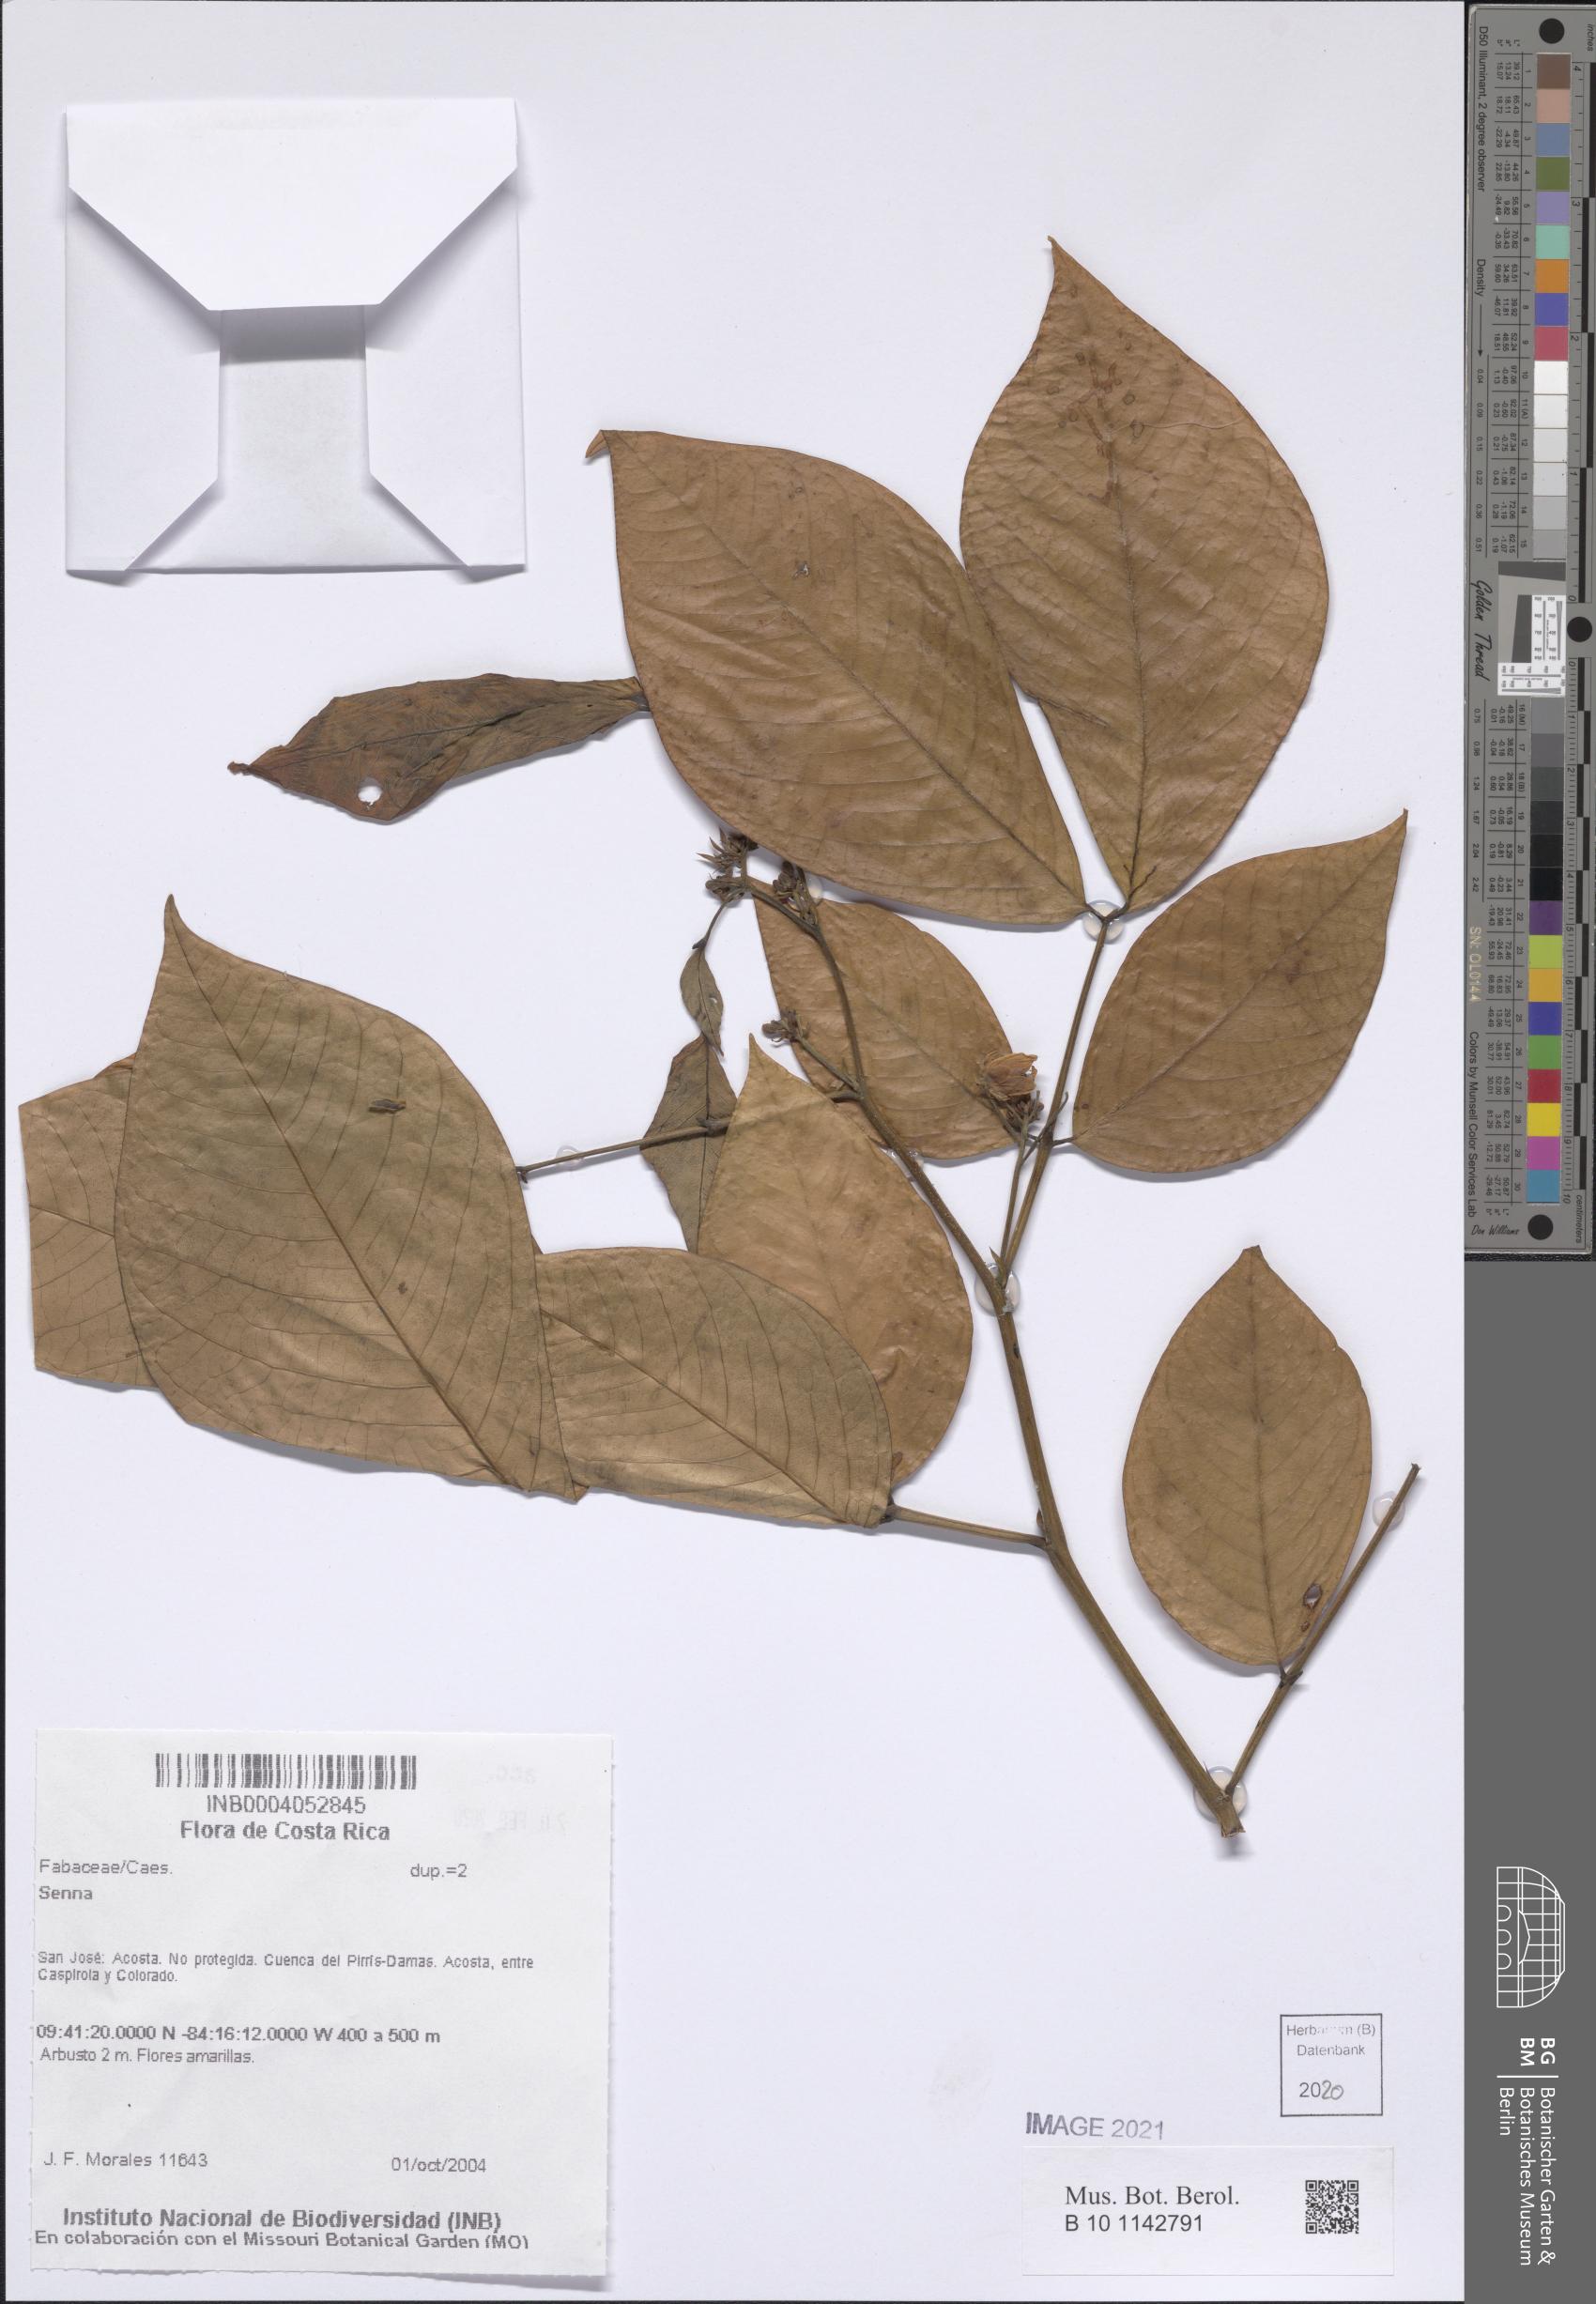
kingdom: Plantae
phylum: Tracheophyta
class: Magnoliopsida
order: Fabales
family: Fabaceae
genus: Senna
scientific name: Senna
